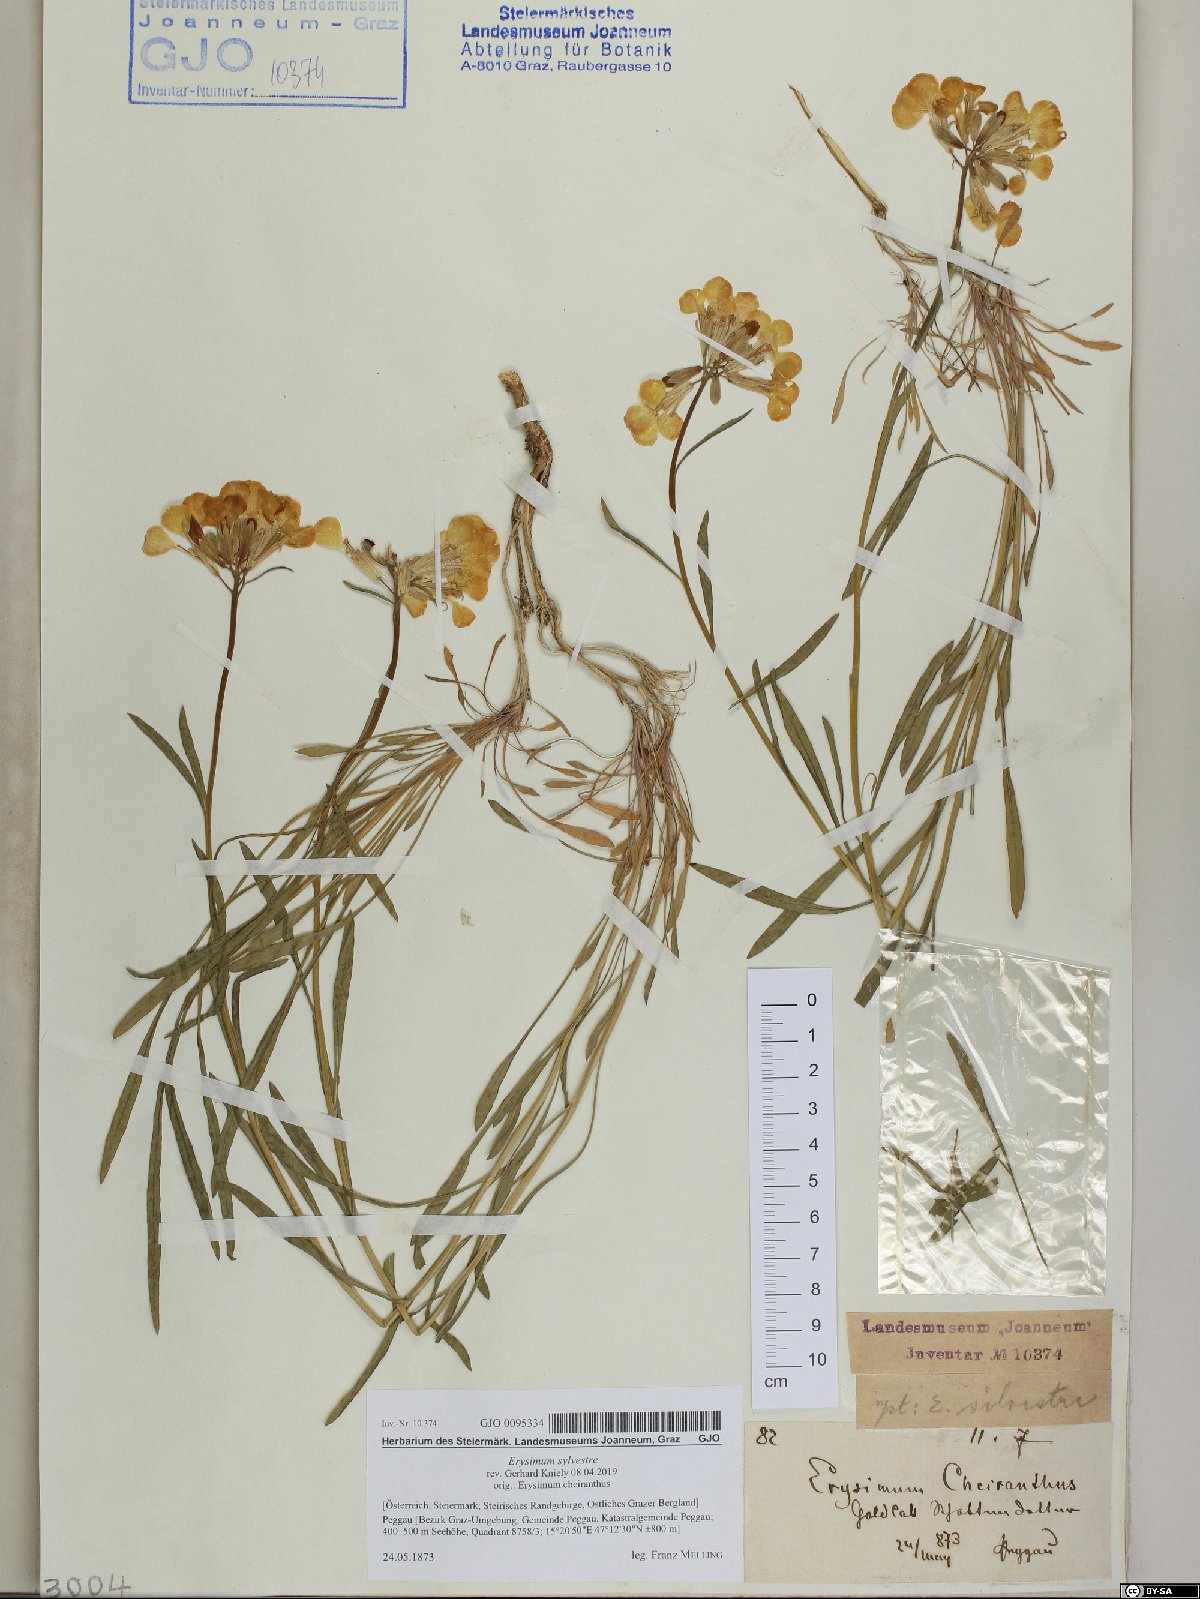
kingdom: Plantae
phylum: Tracheophyta
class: Magnoliopsida
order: Brassicales
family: Brassicaceae
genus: Erysimum
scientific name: Erysimum sylvestre
